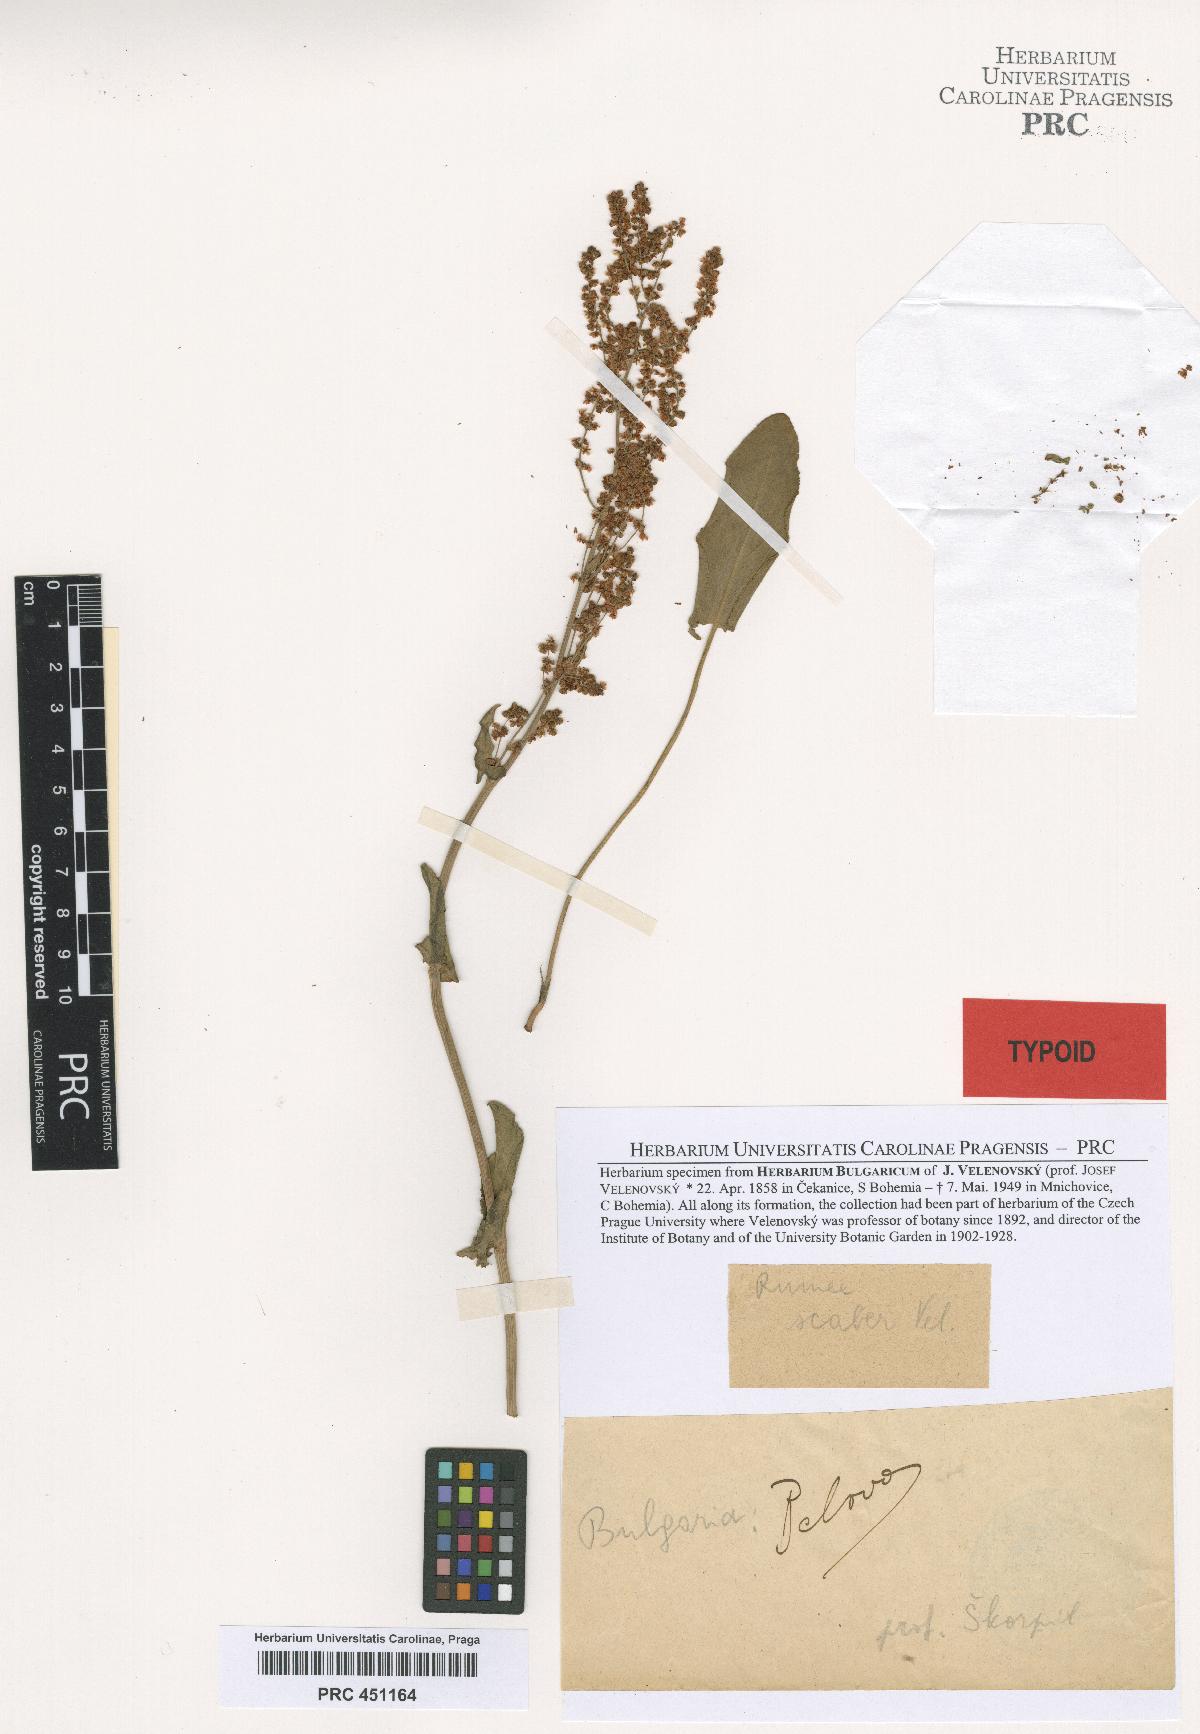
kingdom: Plantae
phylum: Tracheophyta
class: Magnoliopsida
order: Caryophyllales
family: Polygonaceae
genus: Rumex
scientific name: Rumex acetosa
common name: Garden sorrel
